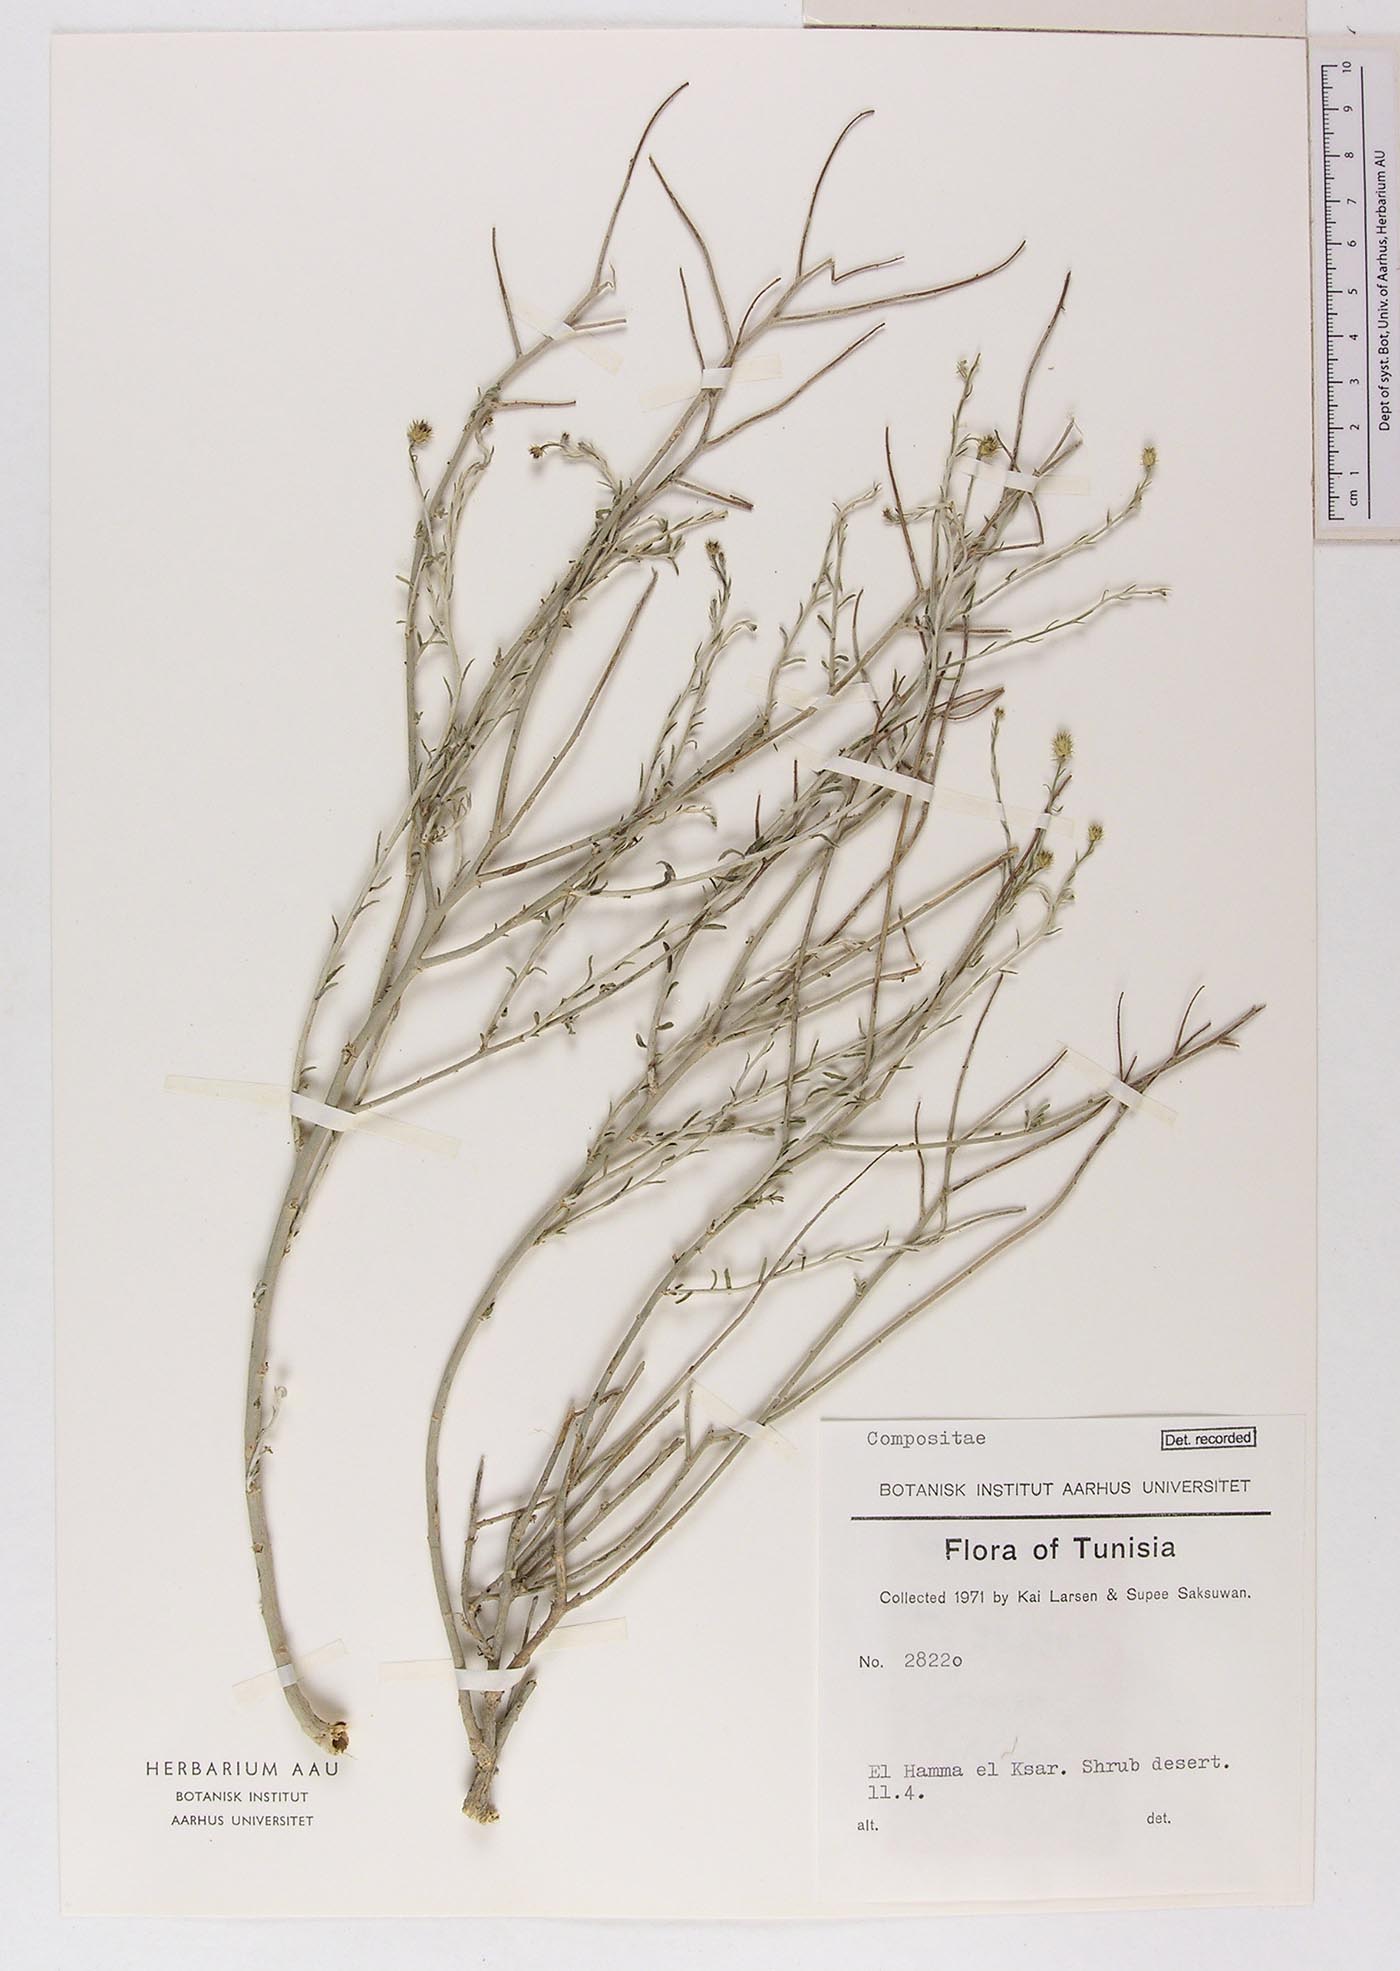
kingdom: Plantae
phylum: Tracheophyta
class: Magnoliopsida
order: Asterales
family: Asteraceae
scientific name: Asteraceae
